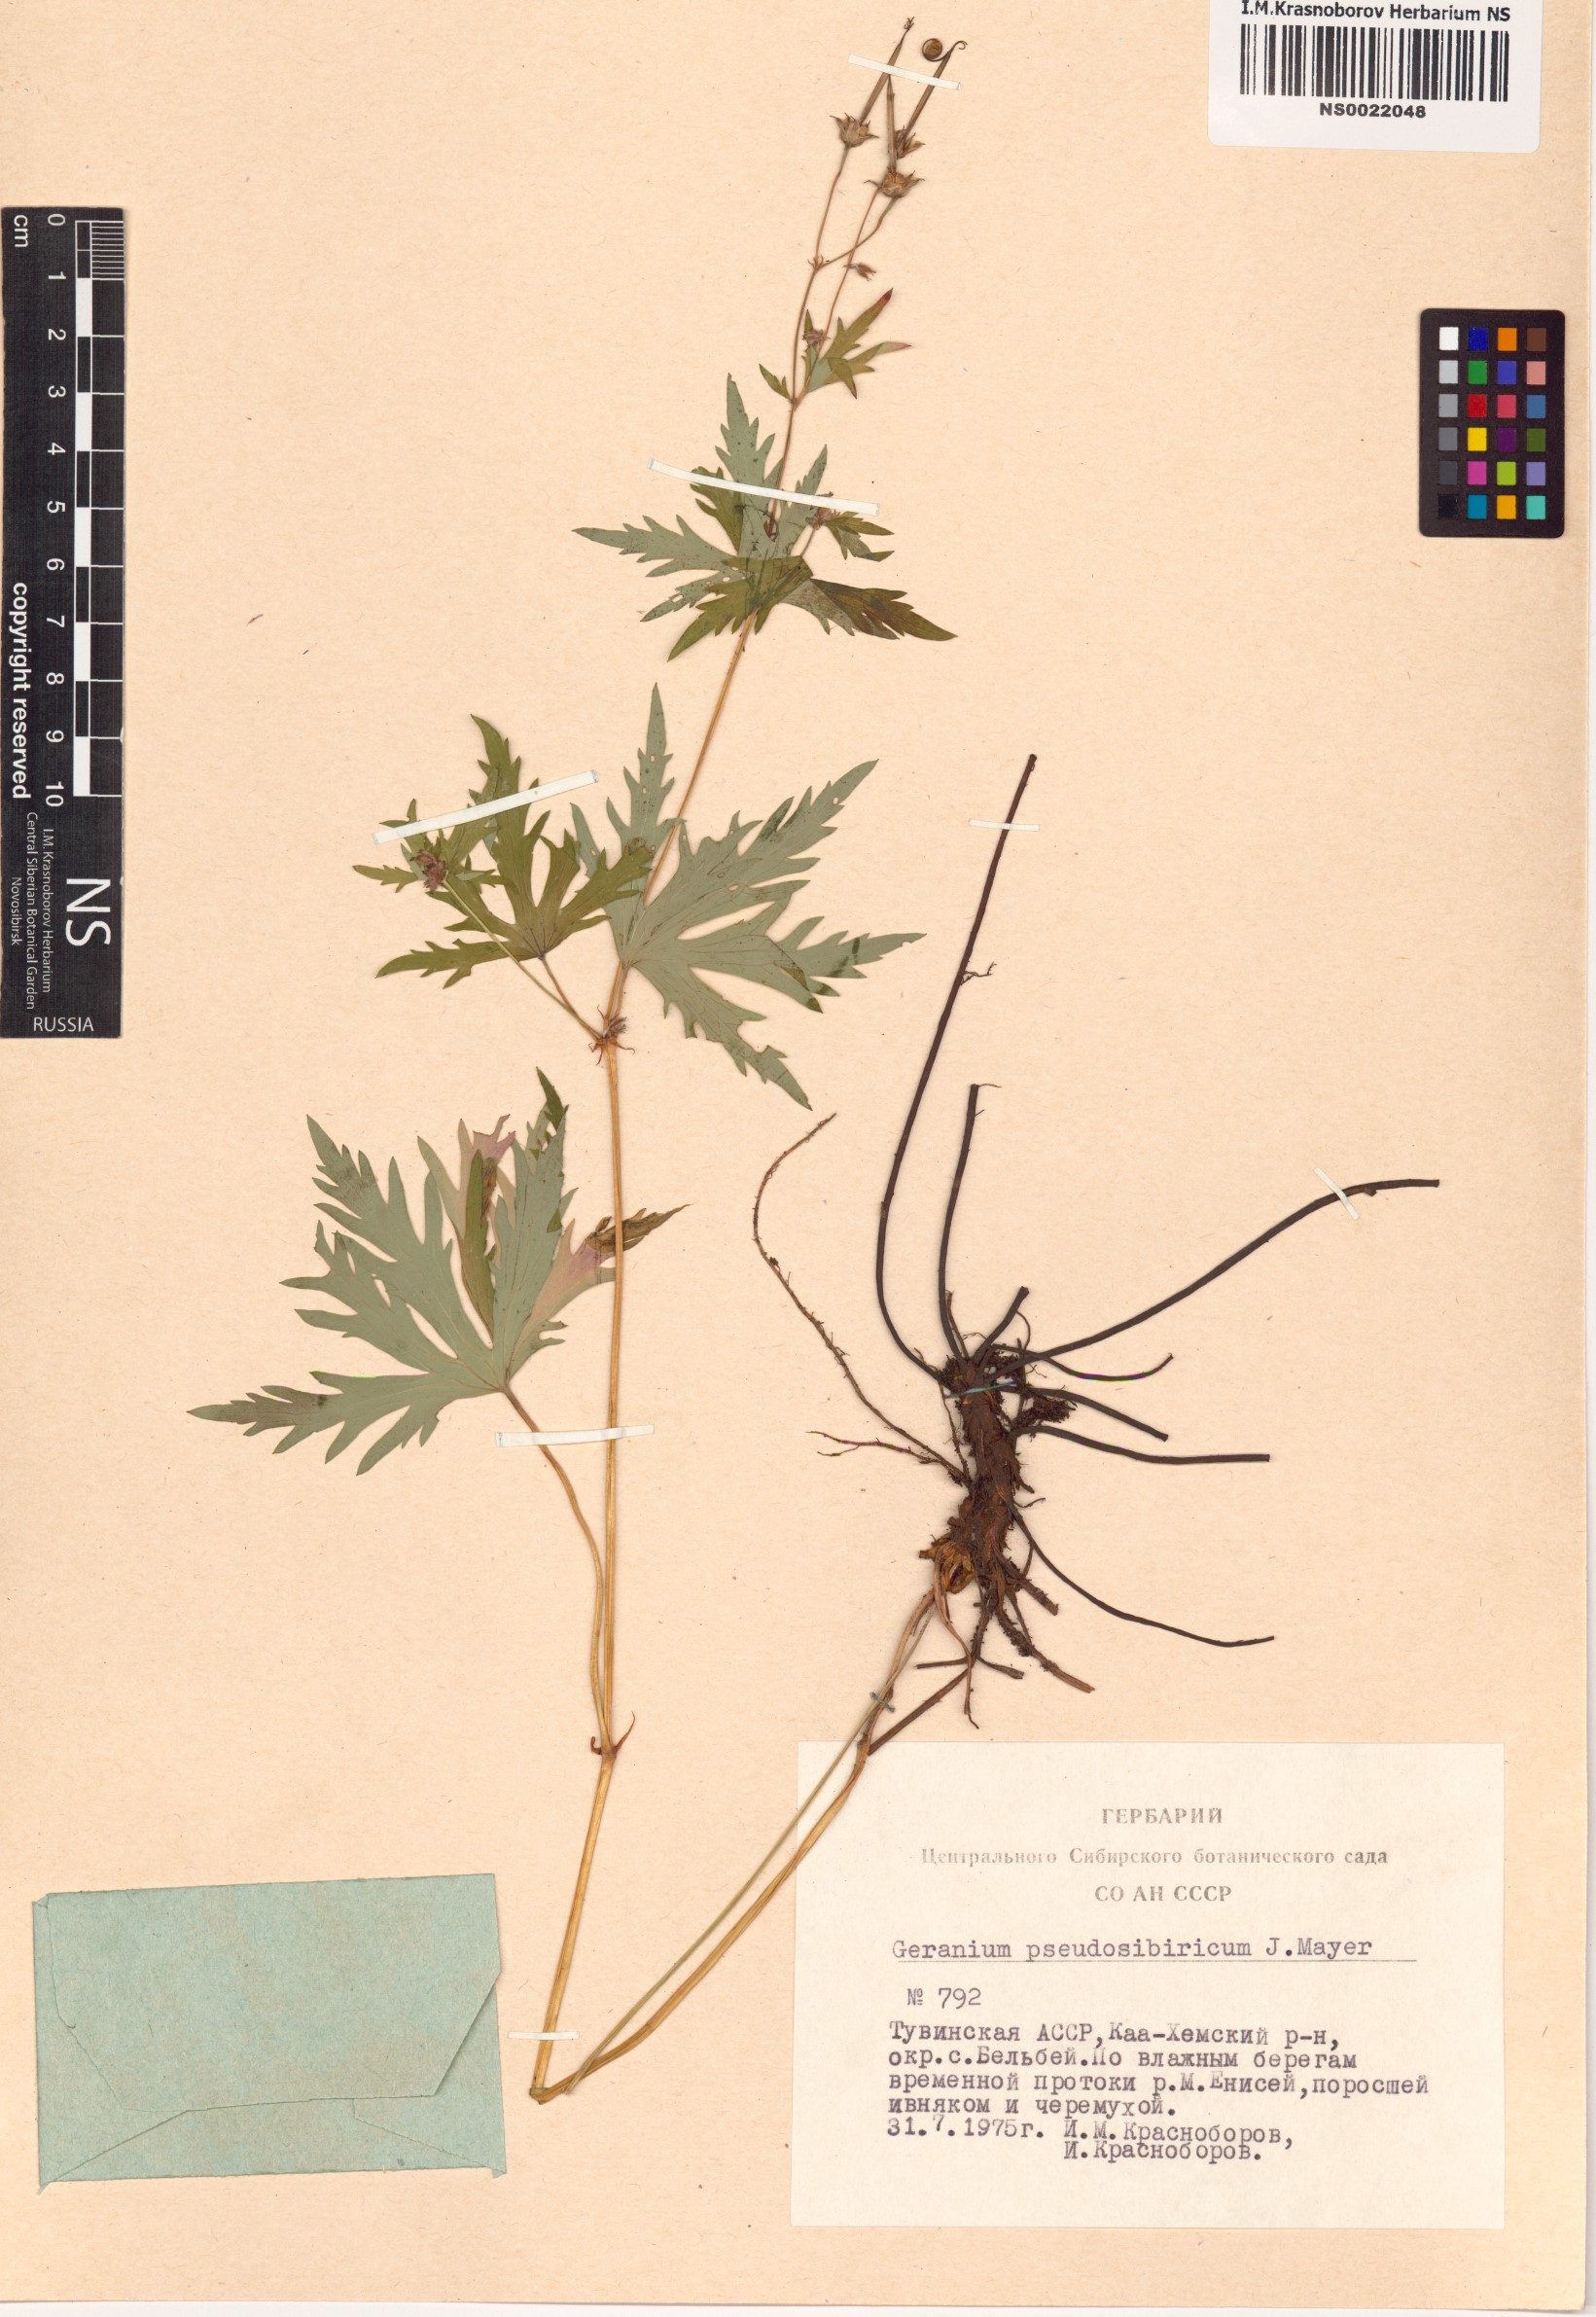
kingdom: Plantae
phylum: Tracheophyta
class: Magnoliopsida
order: Geraniales
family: Geraniaceae
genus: Geranium
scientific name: Geranium pseudosibiricum
